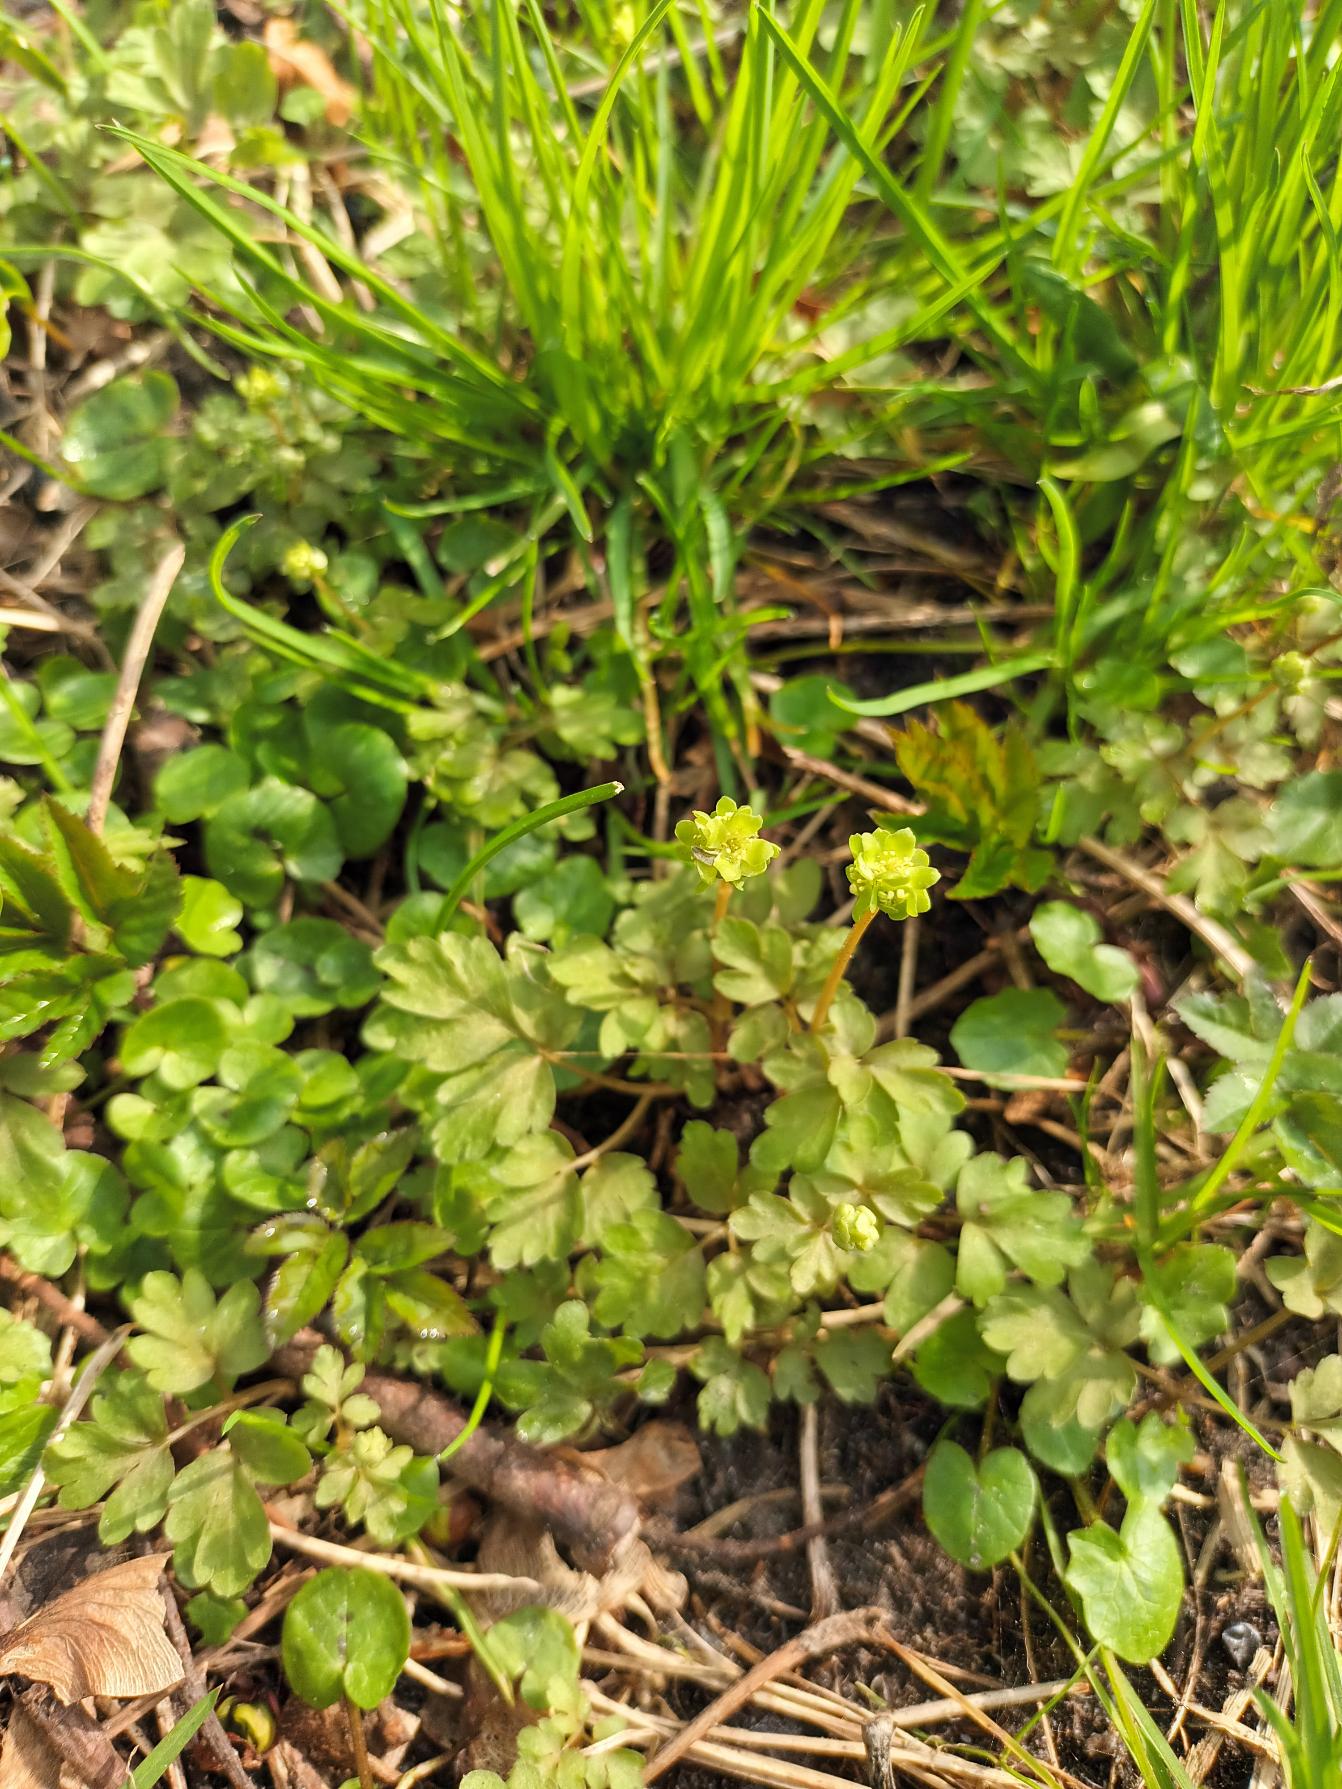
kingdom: Plantae
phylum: Tracheophyta
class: Magnoliopsida
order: Dipsacales
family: Viburnaceae
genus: Adoxa
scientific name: Adoxa moschatellina
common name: Desmerurt
